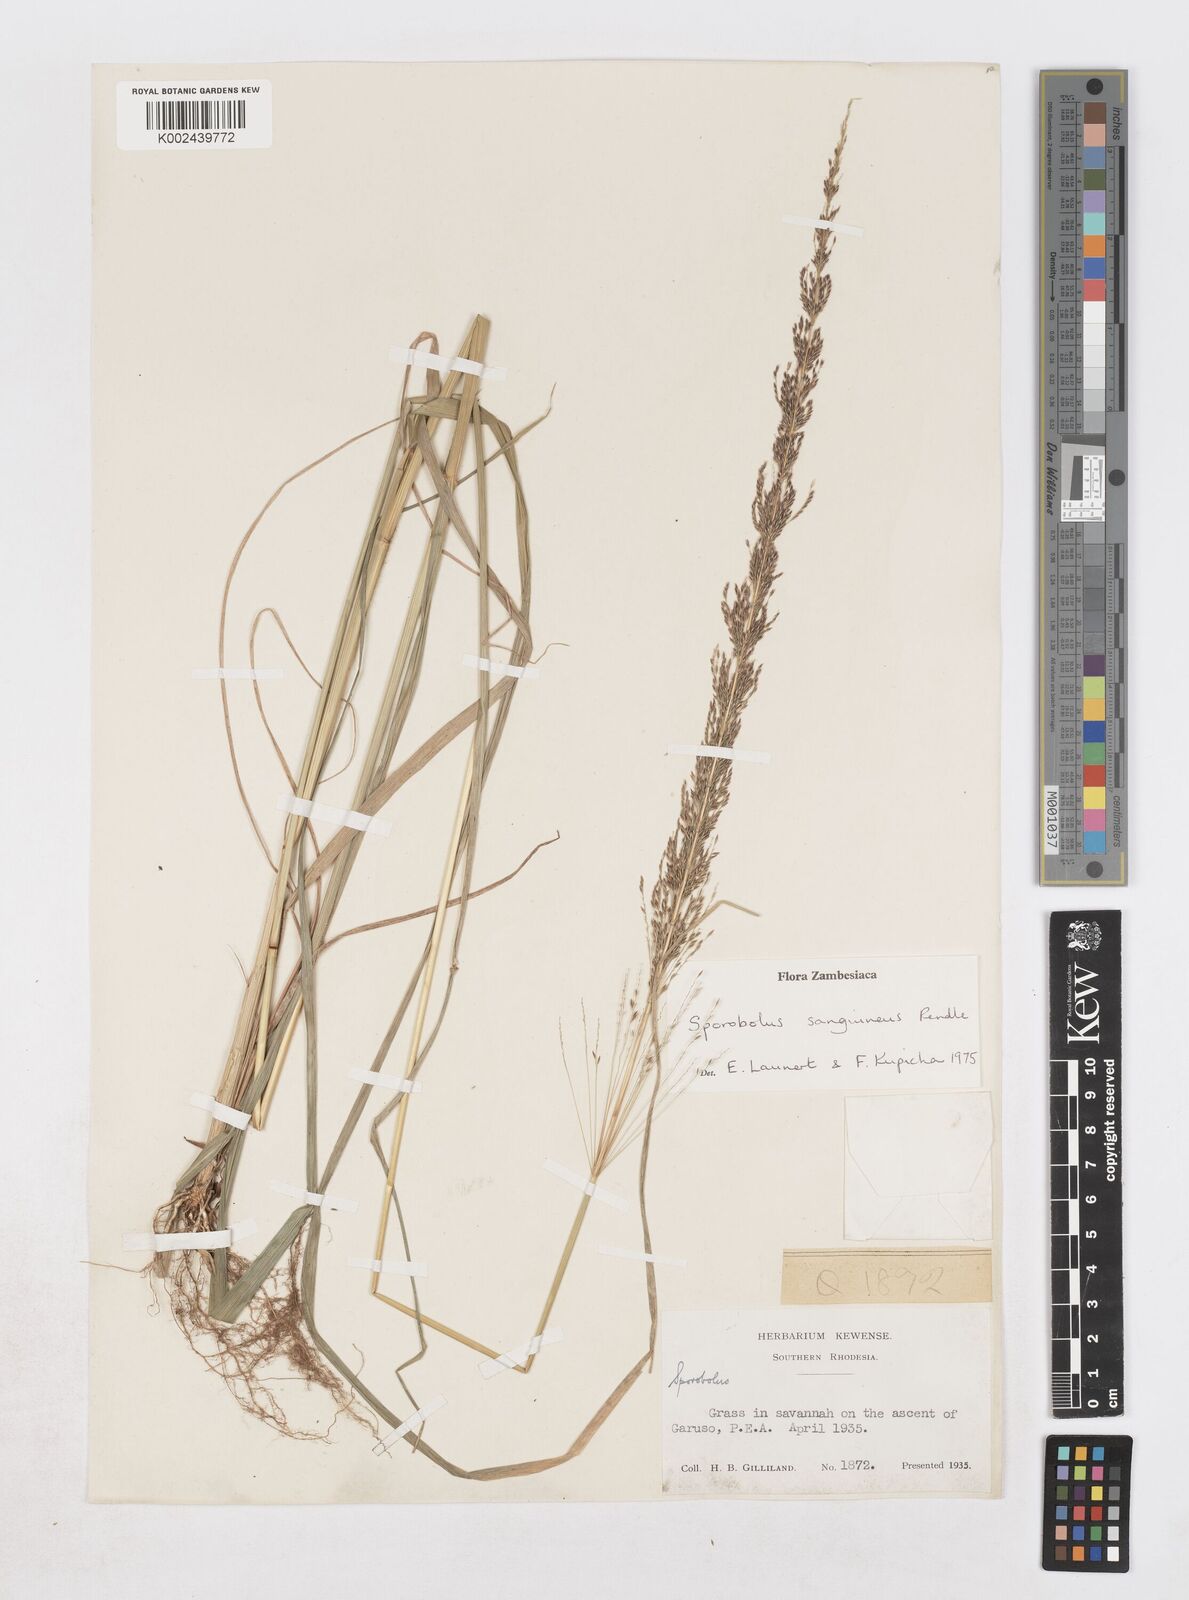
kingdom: Plantae
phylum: Tracheophyta
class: Liliopsida
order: Poales
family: Poaceae
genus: Sporobolus
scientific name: Sporobolus sanguineus
